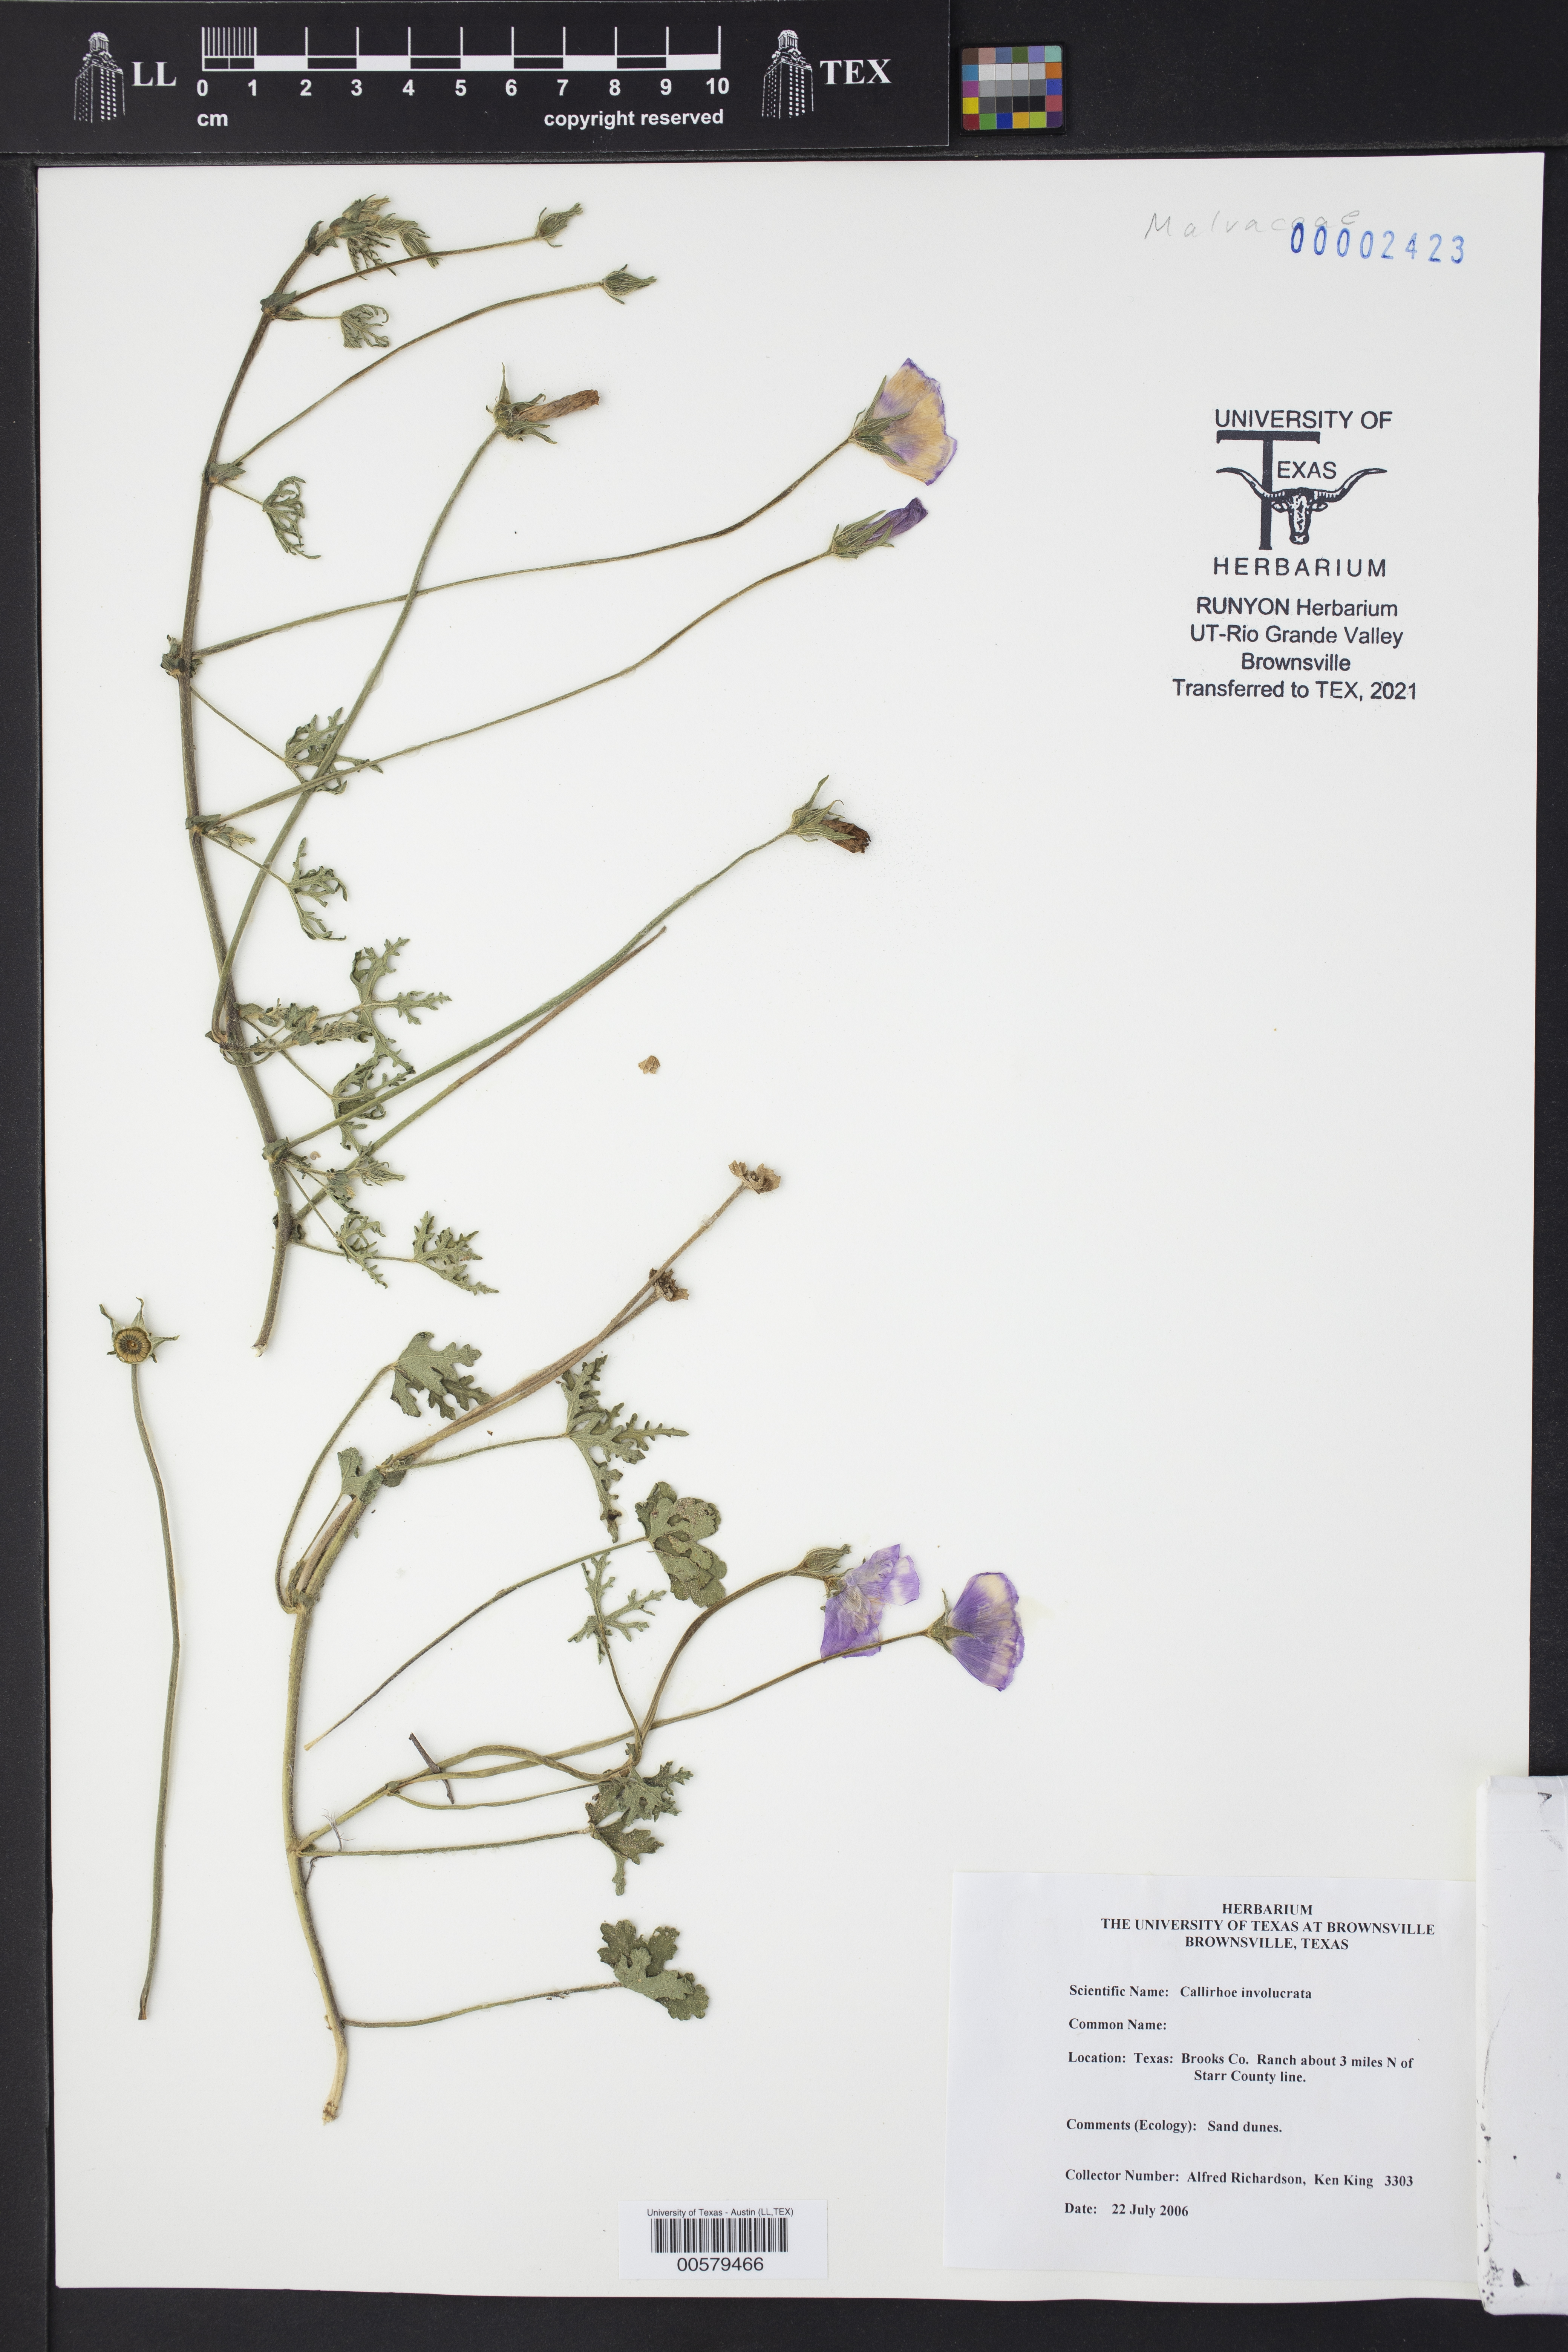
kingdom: Plantae
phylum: Tracheophyta
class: Magnoliopsida
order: Malvales
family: Malvaceae
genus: Callirhoe
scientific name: Callirhoe involucrata
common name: Purple poppy-mallow
